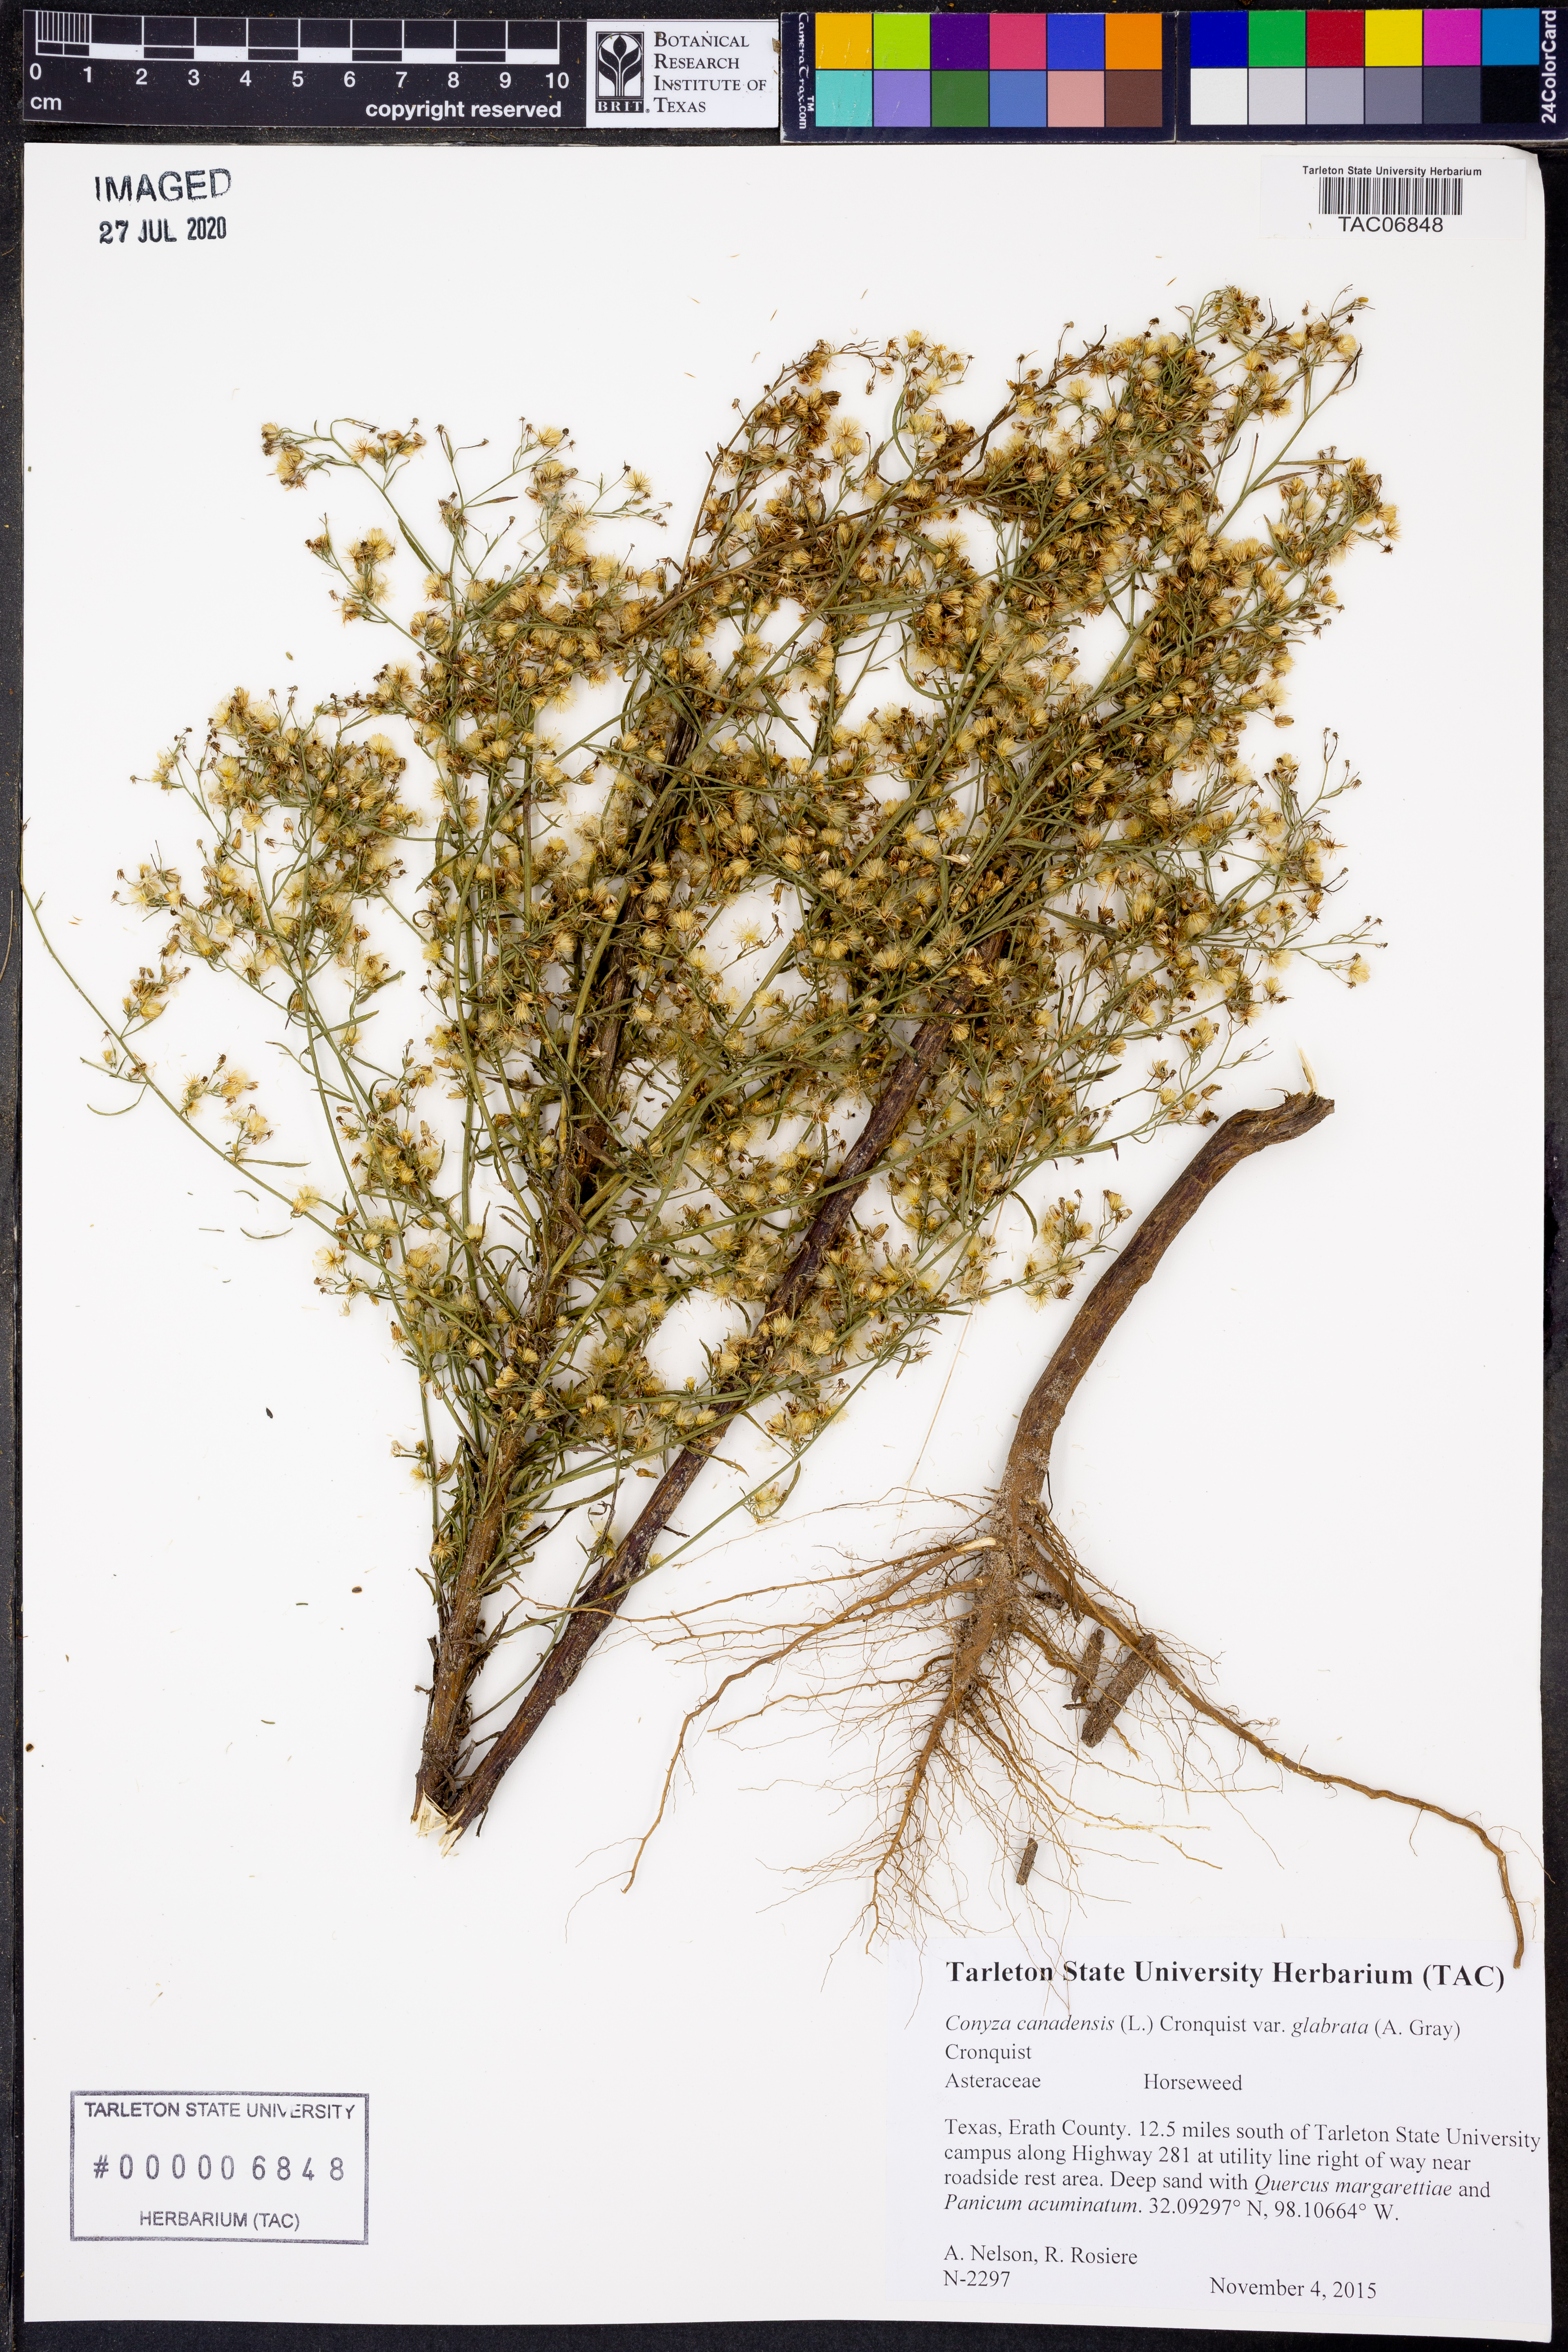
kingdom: Plantae
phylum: Tracheophyta
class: Magnoliopsida
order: Asterales
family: Asteraceae
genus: Erigeron
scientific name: Erigeron canadensis
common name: Canadian fleabane
